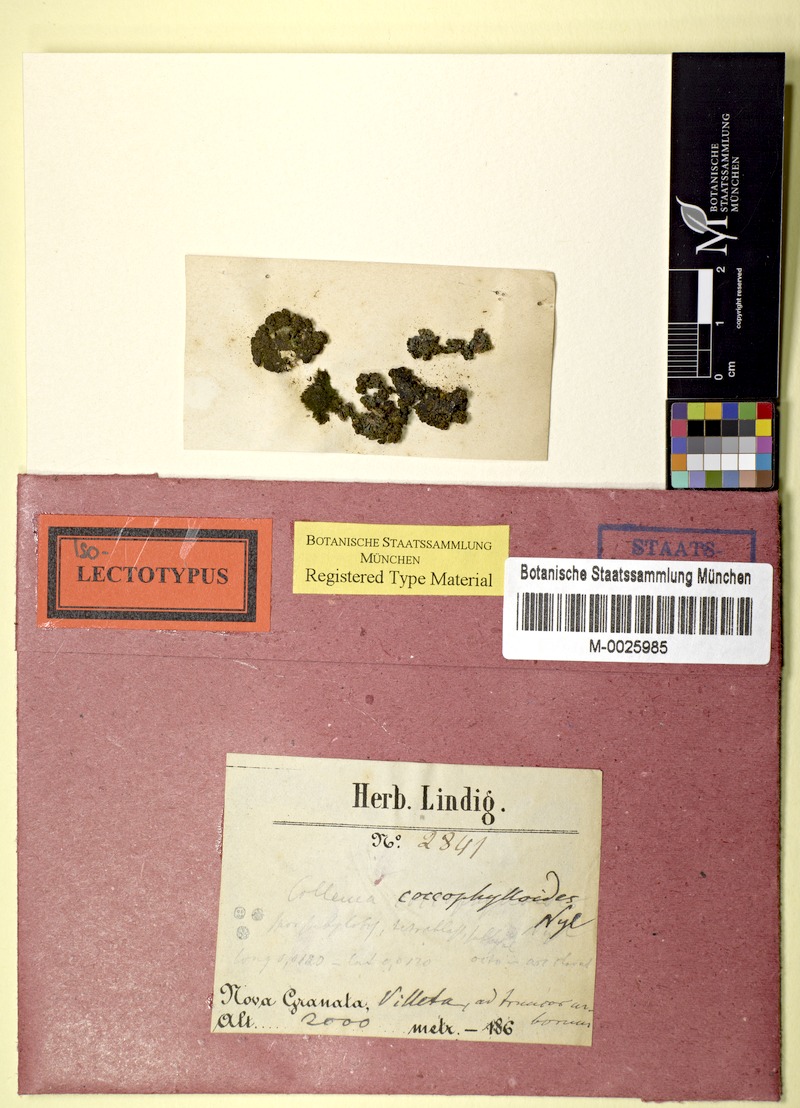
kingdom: Fungi
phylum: Ascomycota
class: Lecanoromycetes
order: Peltigerales
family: Collemataceae
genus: Rostania
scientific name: Rostania callibotrys
